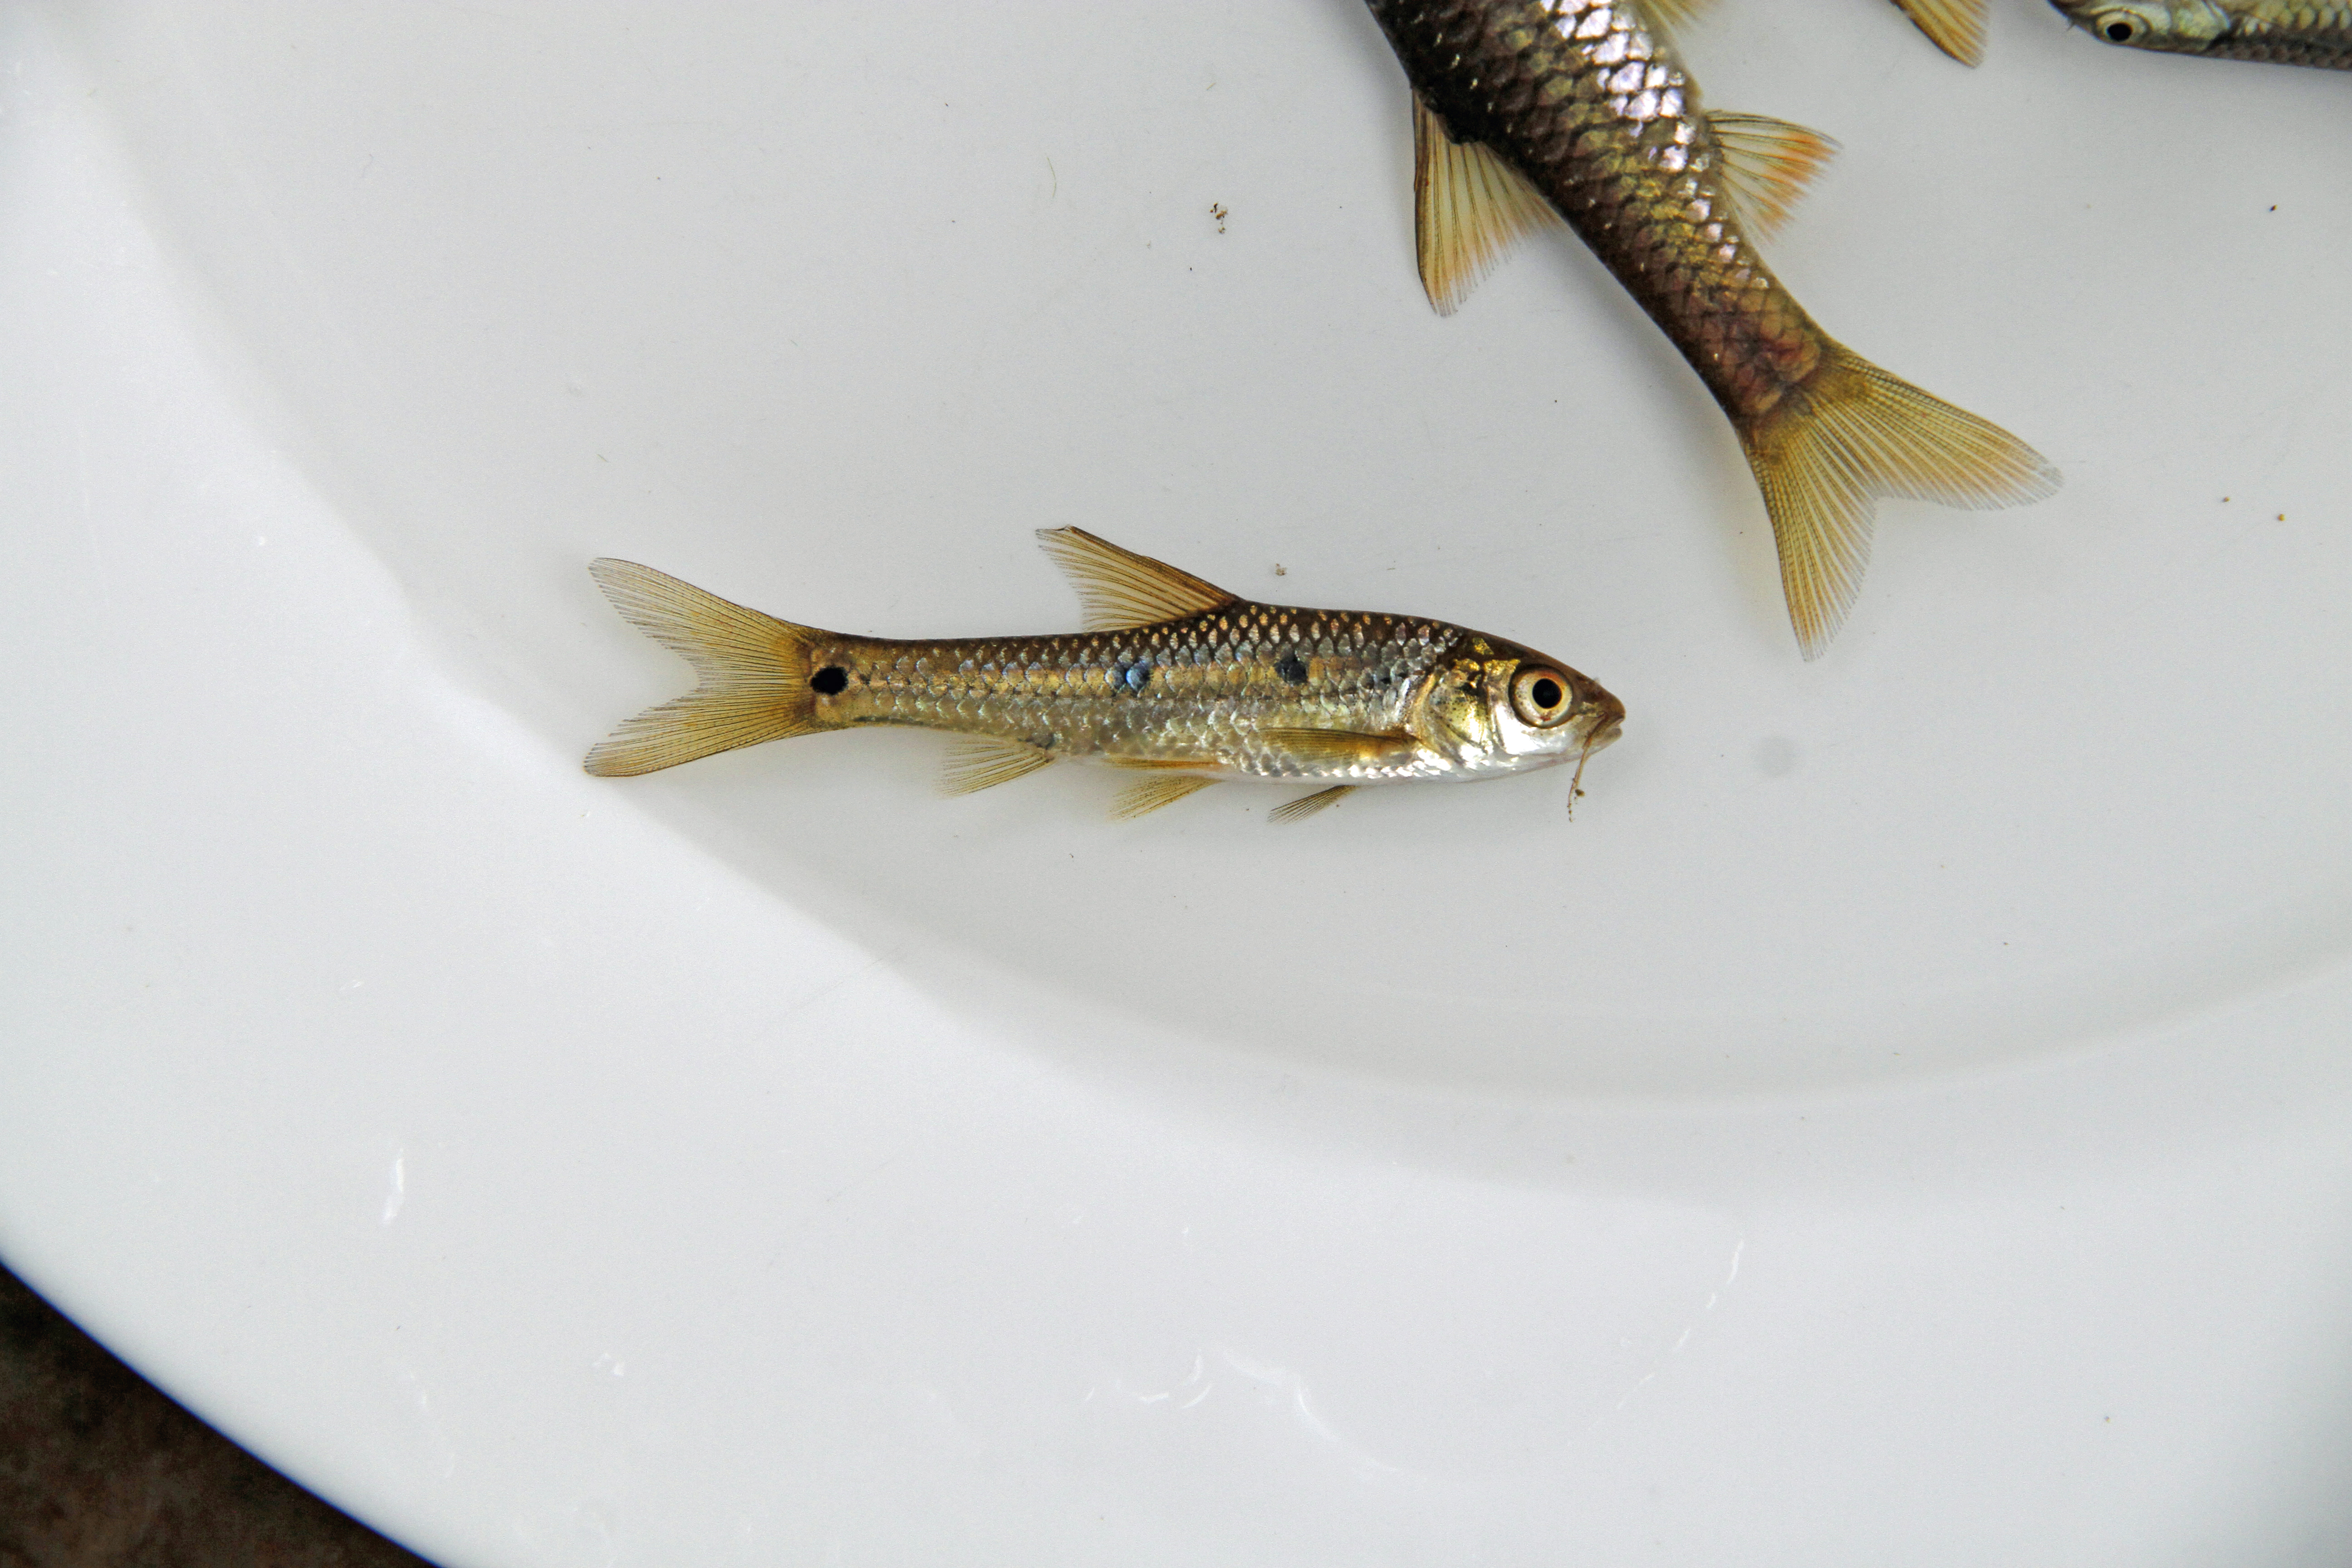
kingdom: Animalia
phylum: Chordata
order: Cypriniformes
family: Cyprinidae
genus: Enteromius
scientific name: Enteromius trimaculatus
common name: Threespot barb
